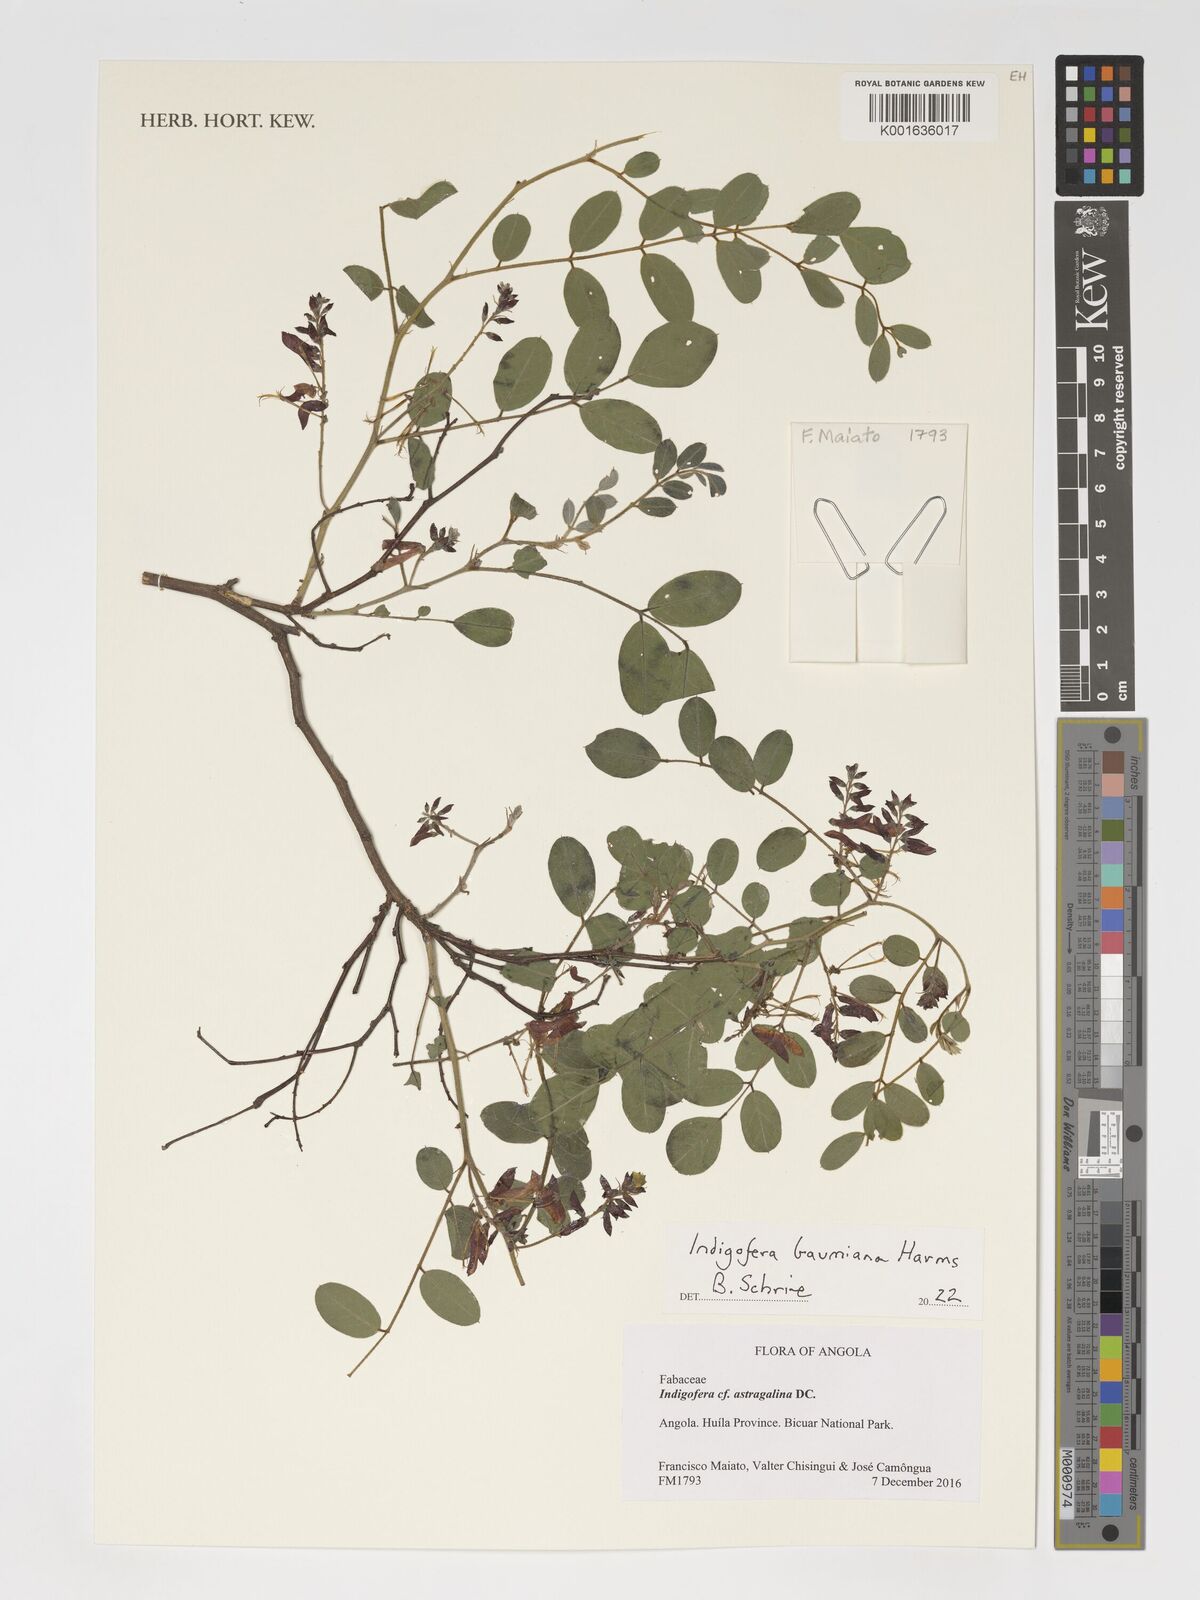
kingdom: Plantae
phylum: Tracheophyta
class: Magnoliopsida
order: Fabales
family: Fabaceae
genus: Indigofera
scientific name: Indigofera baumiana
